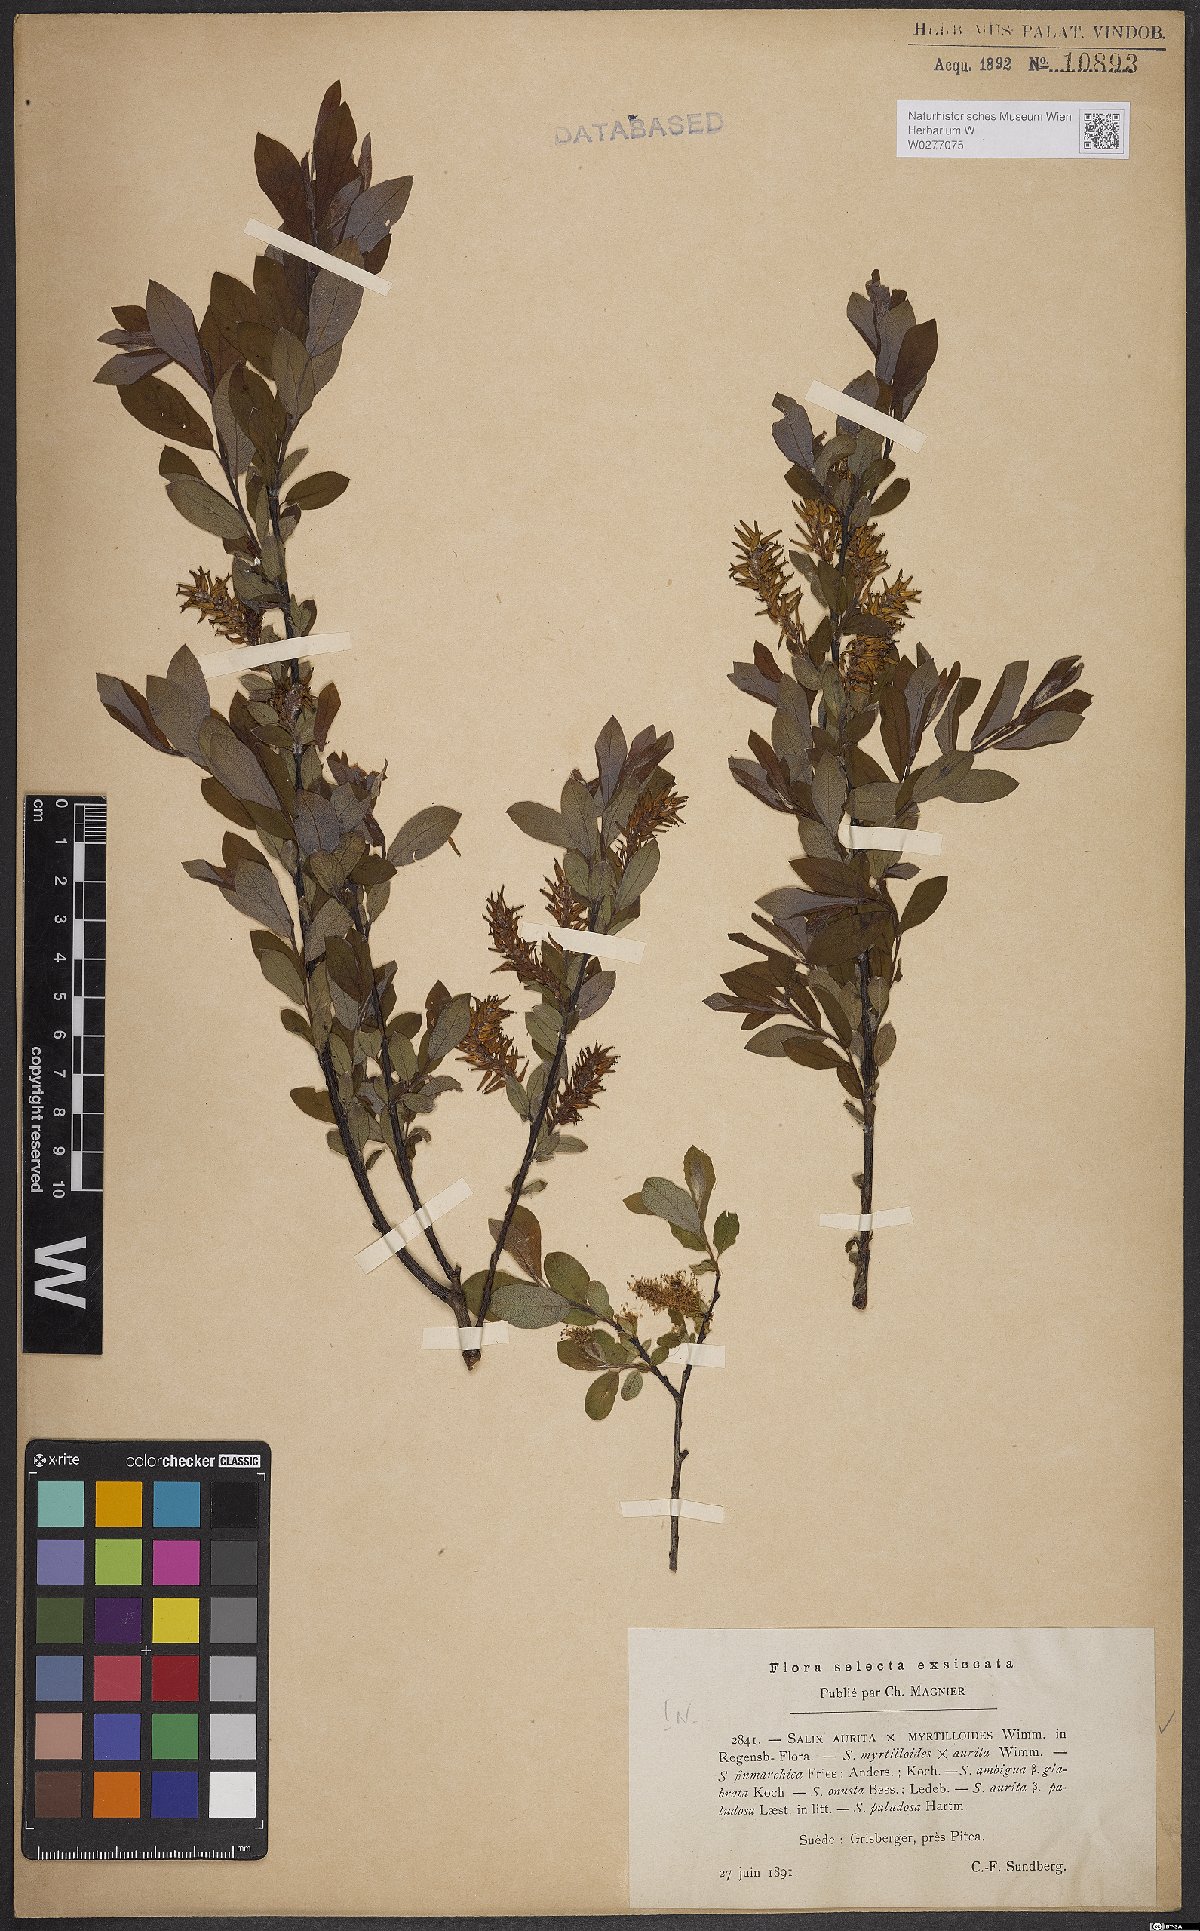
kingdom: Plantae
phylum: Tracheophyta
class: Magnoliopsida
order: Malpighiales
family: Salicaceae
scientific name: Salicaceae
